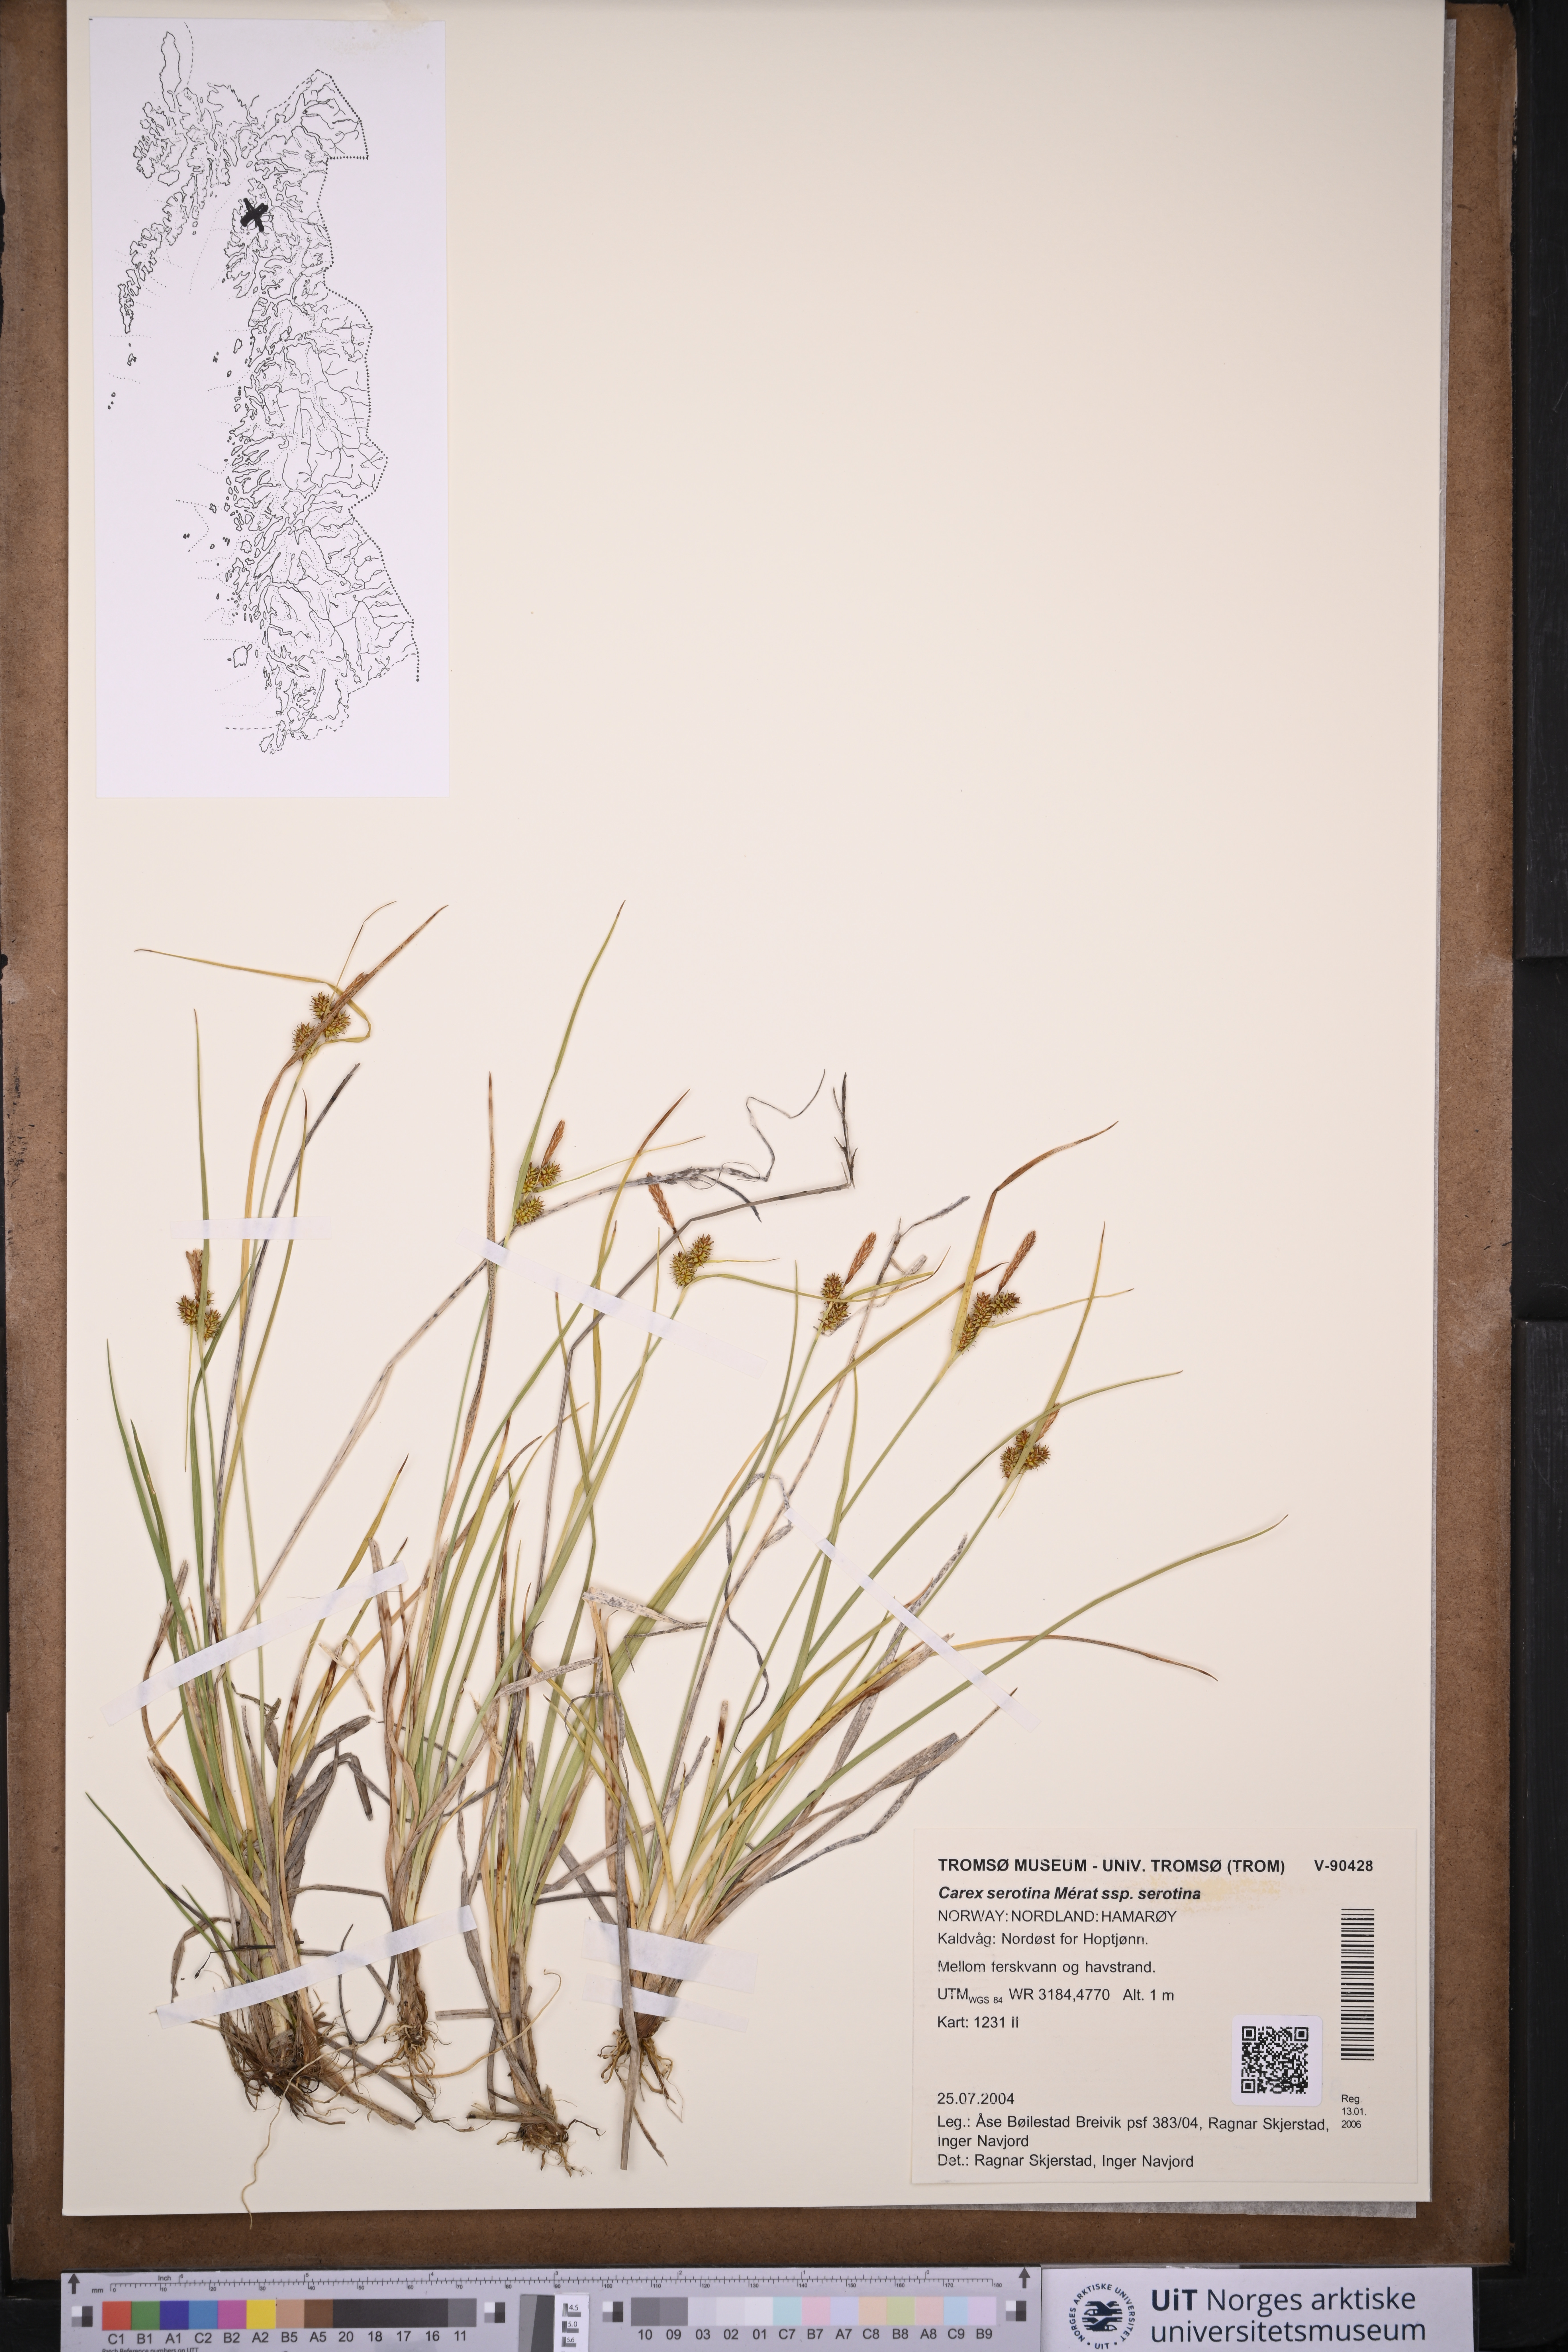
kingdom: Plantae
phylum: Tracheophyta
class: Liliopsida
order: Poales
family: Cyperaceae
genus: Carex
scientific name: Carex oederi
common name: Common & small-fruited yellow-sedge
